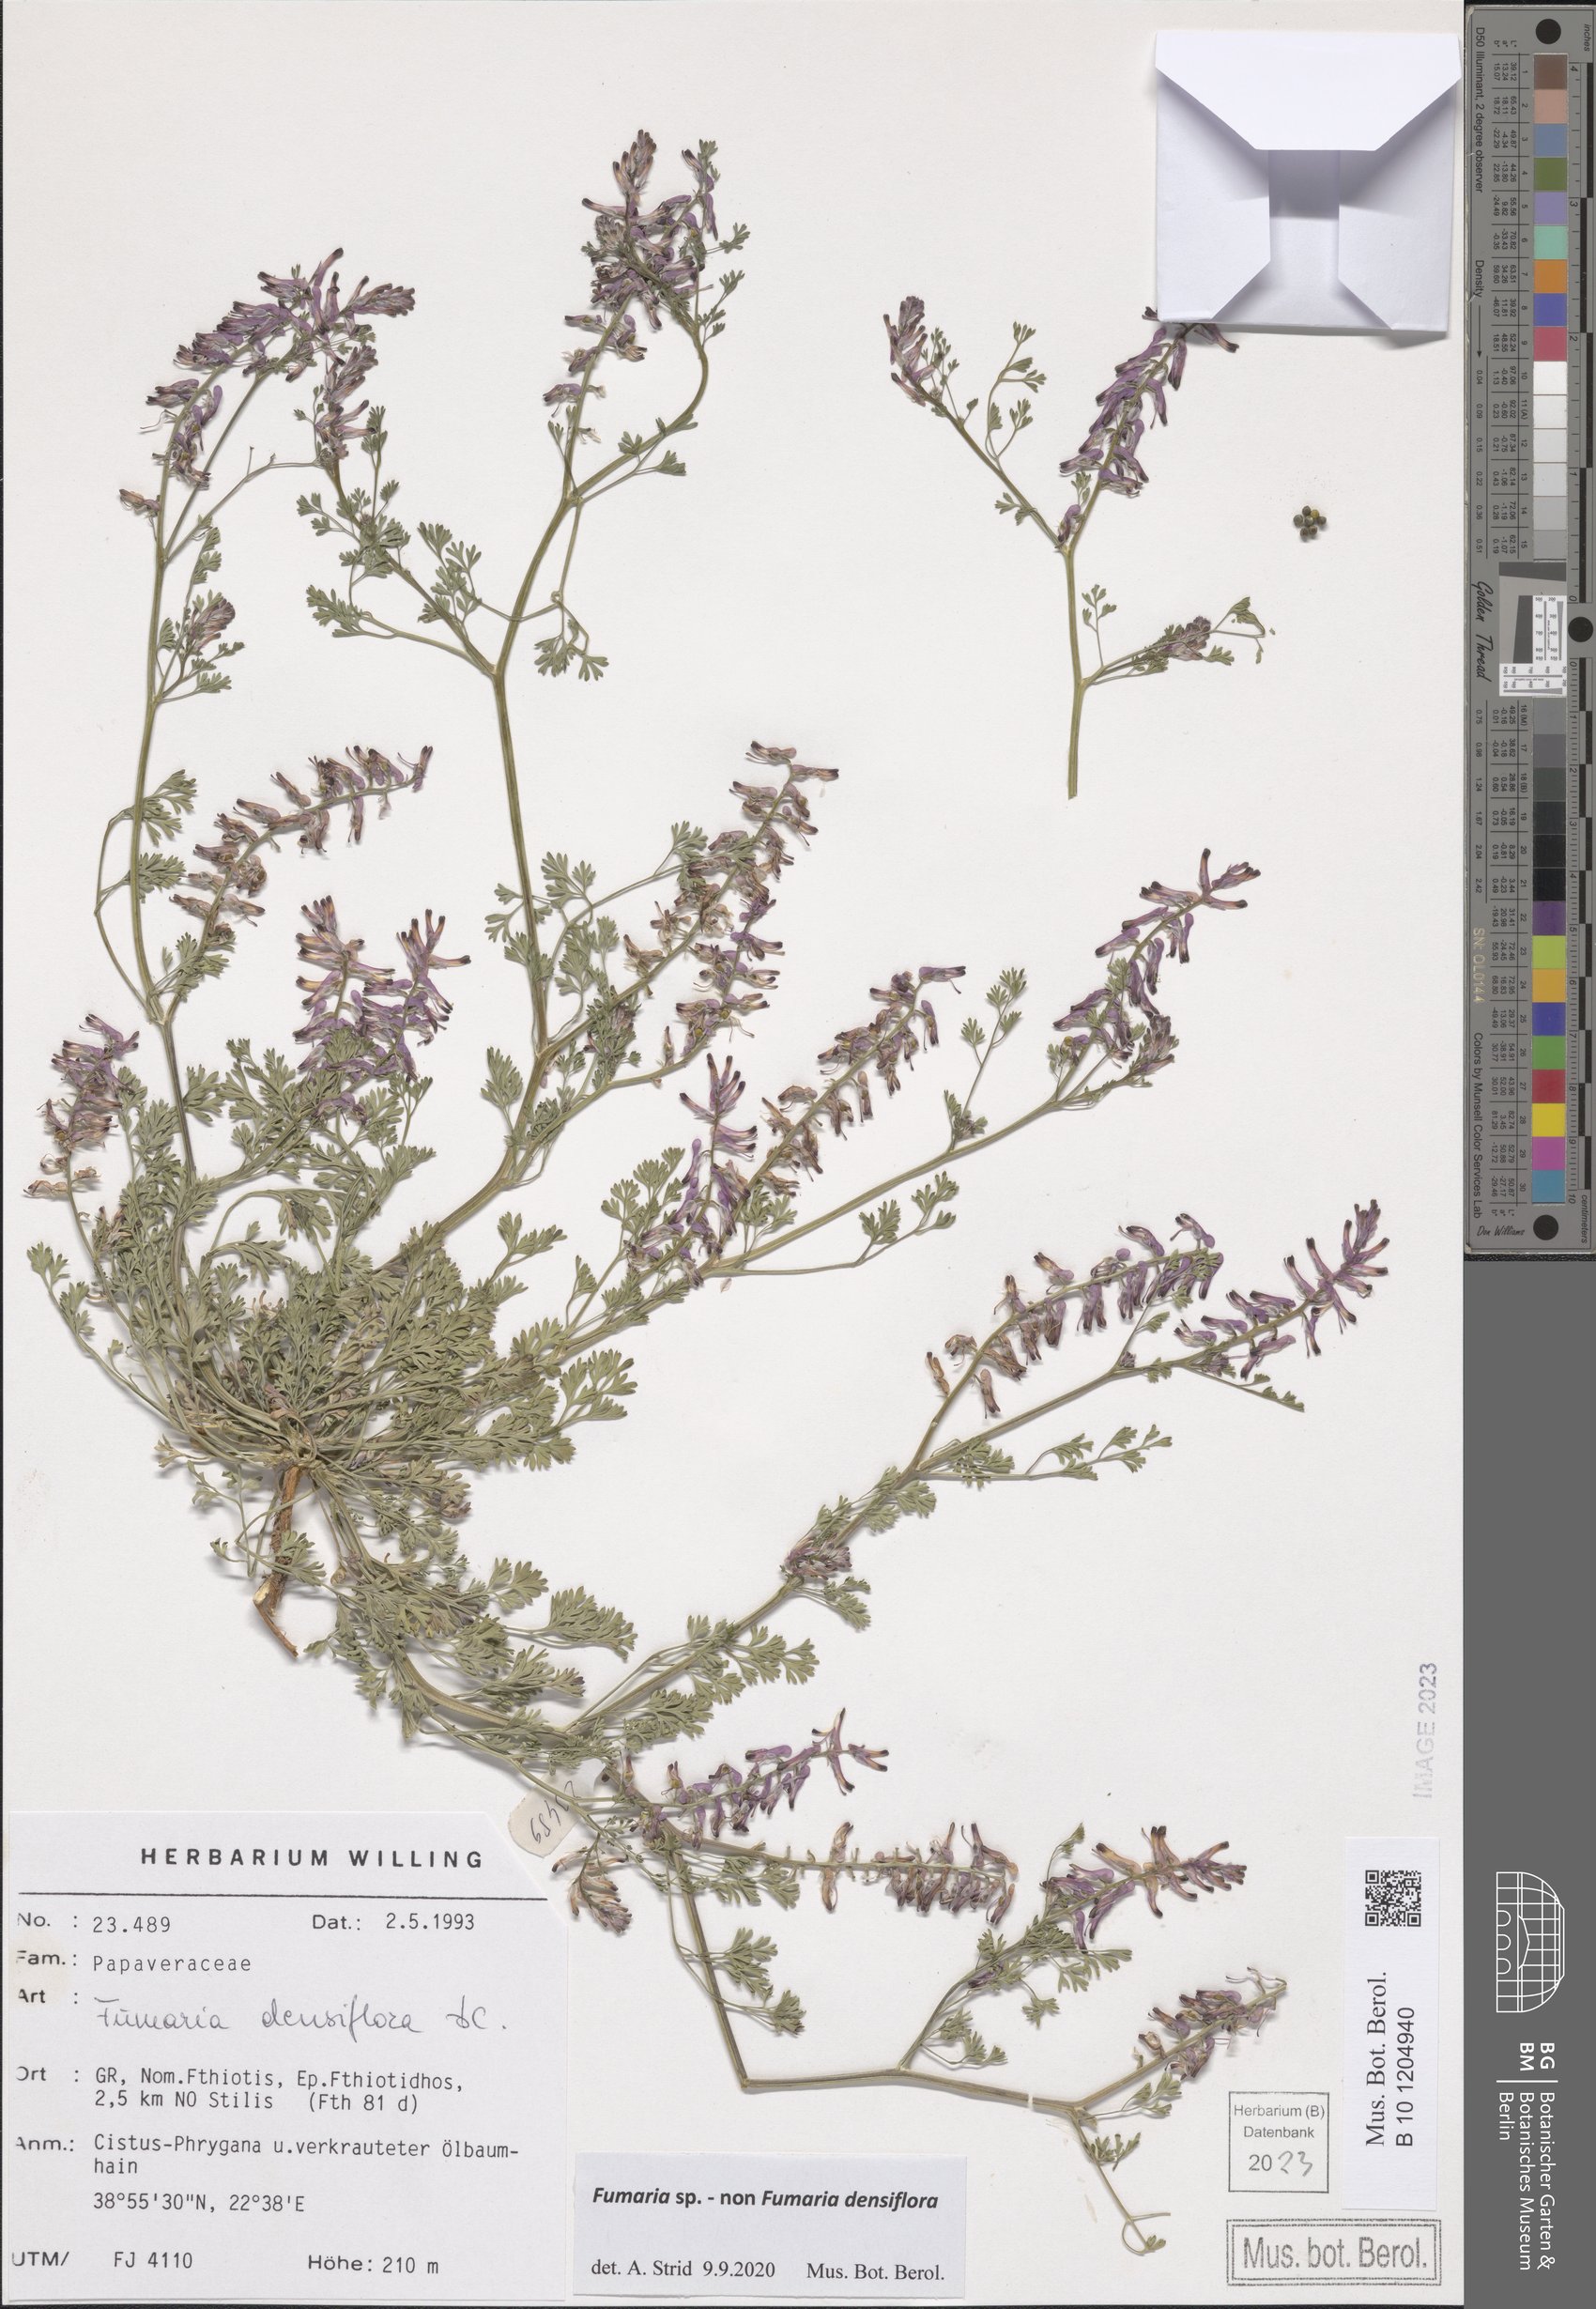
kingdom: Plantae
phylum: Tracheophyta
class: Magnoliopsida
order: Ranunculales
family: Papaveraceae
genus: Fumaria
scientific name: Fumaria
